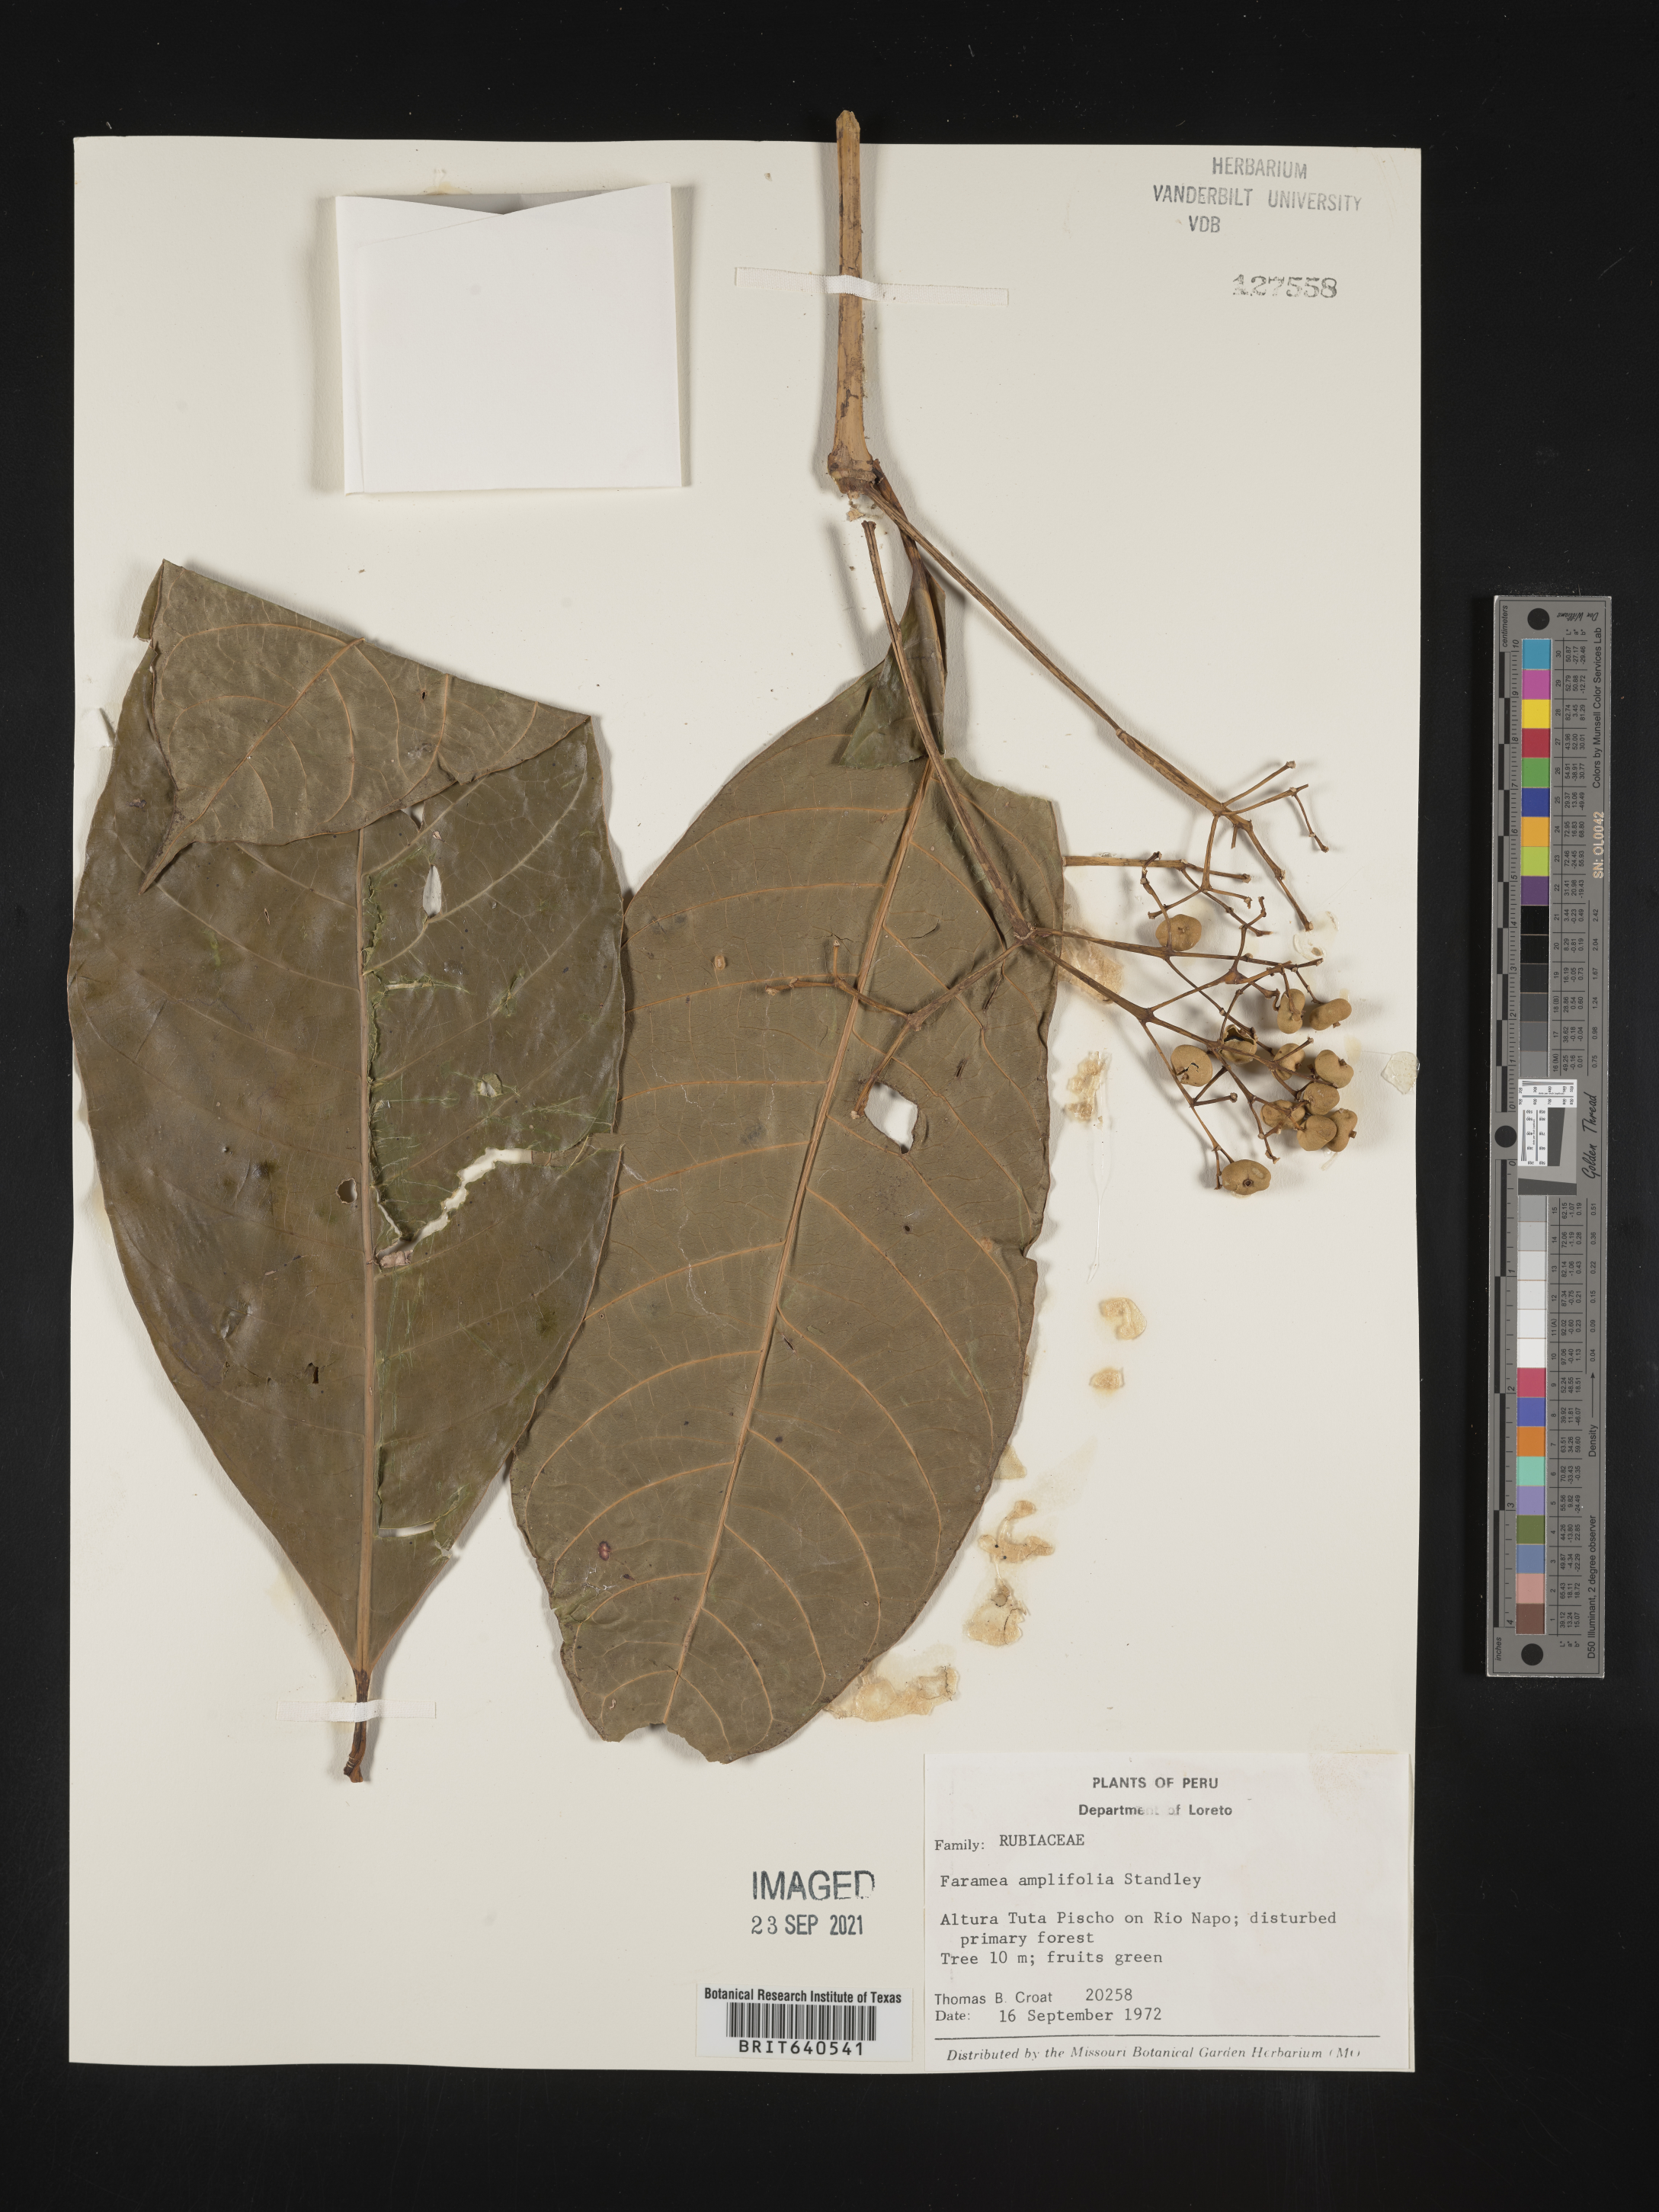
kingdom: Plantae
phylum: Tracheophyta
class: Magnoliopsida
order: Gentianales
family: Rubiaceae
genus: Faramea
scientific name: Faramea
